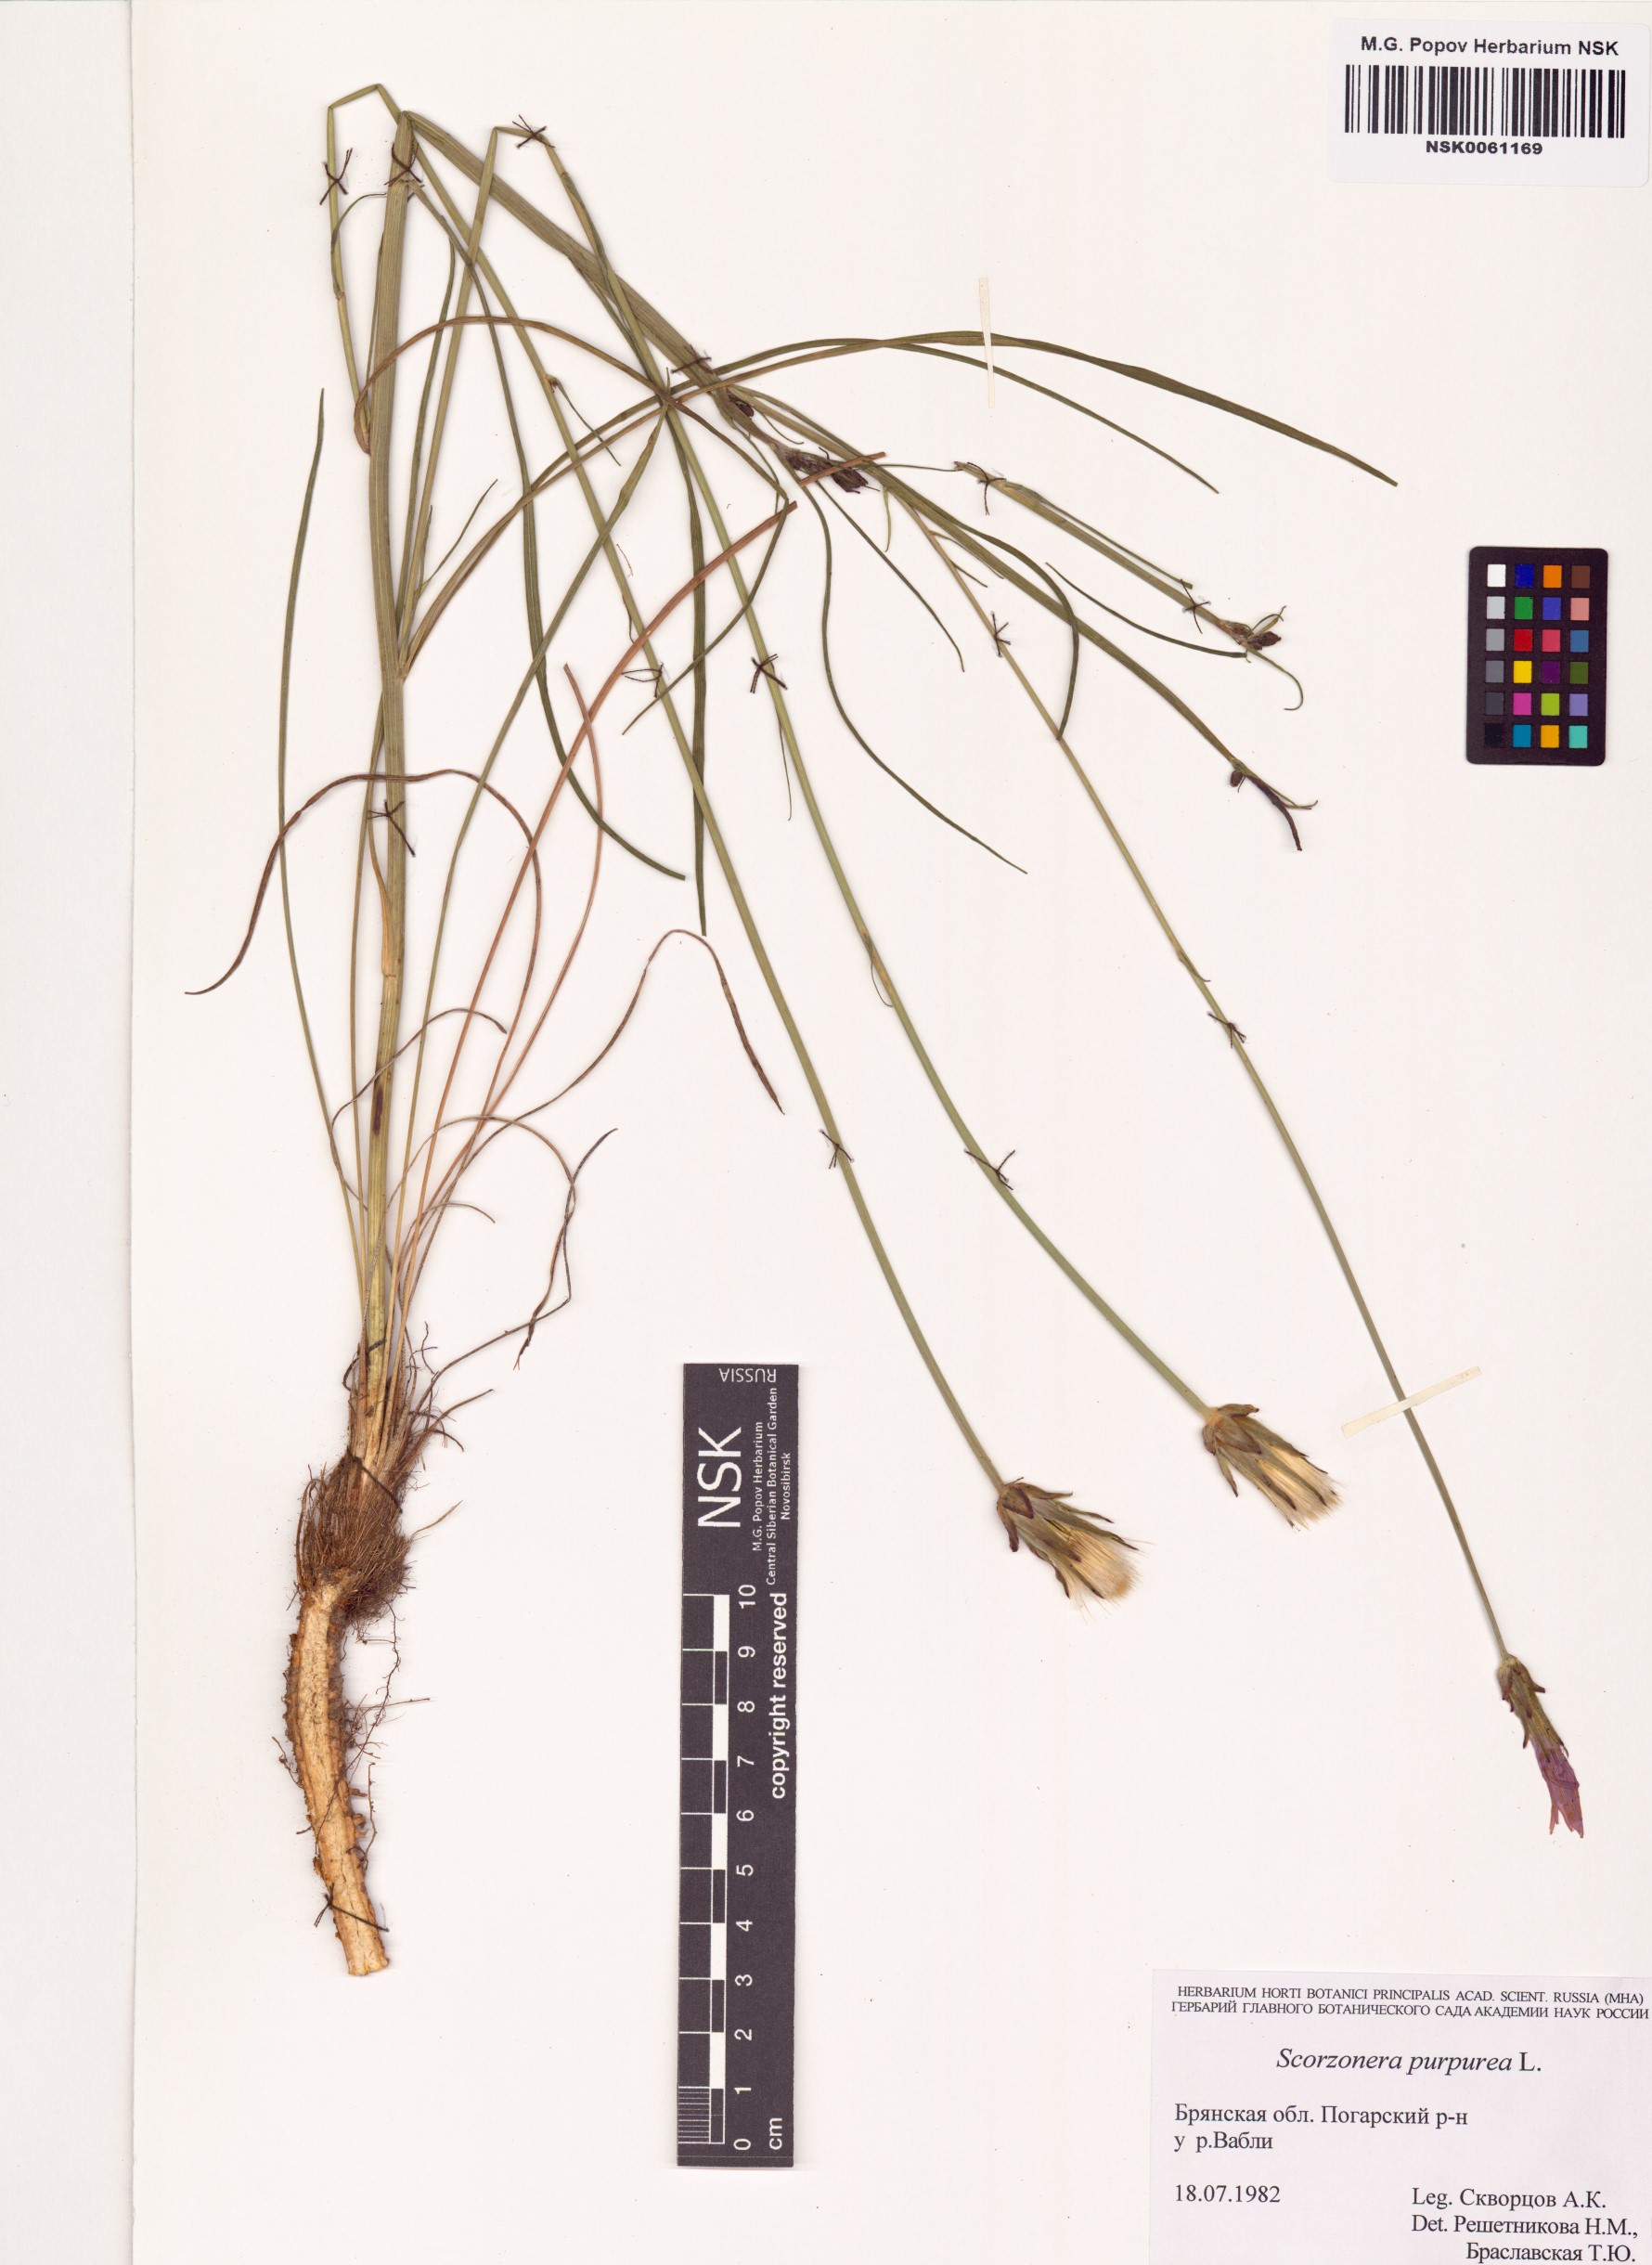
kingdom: Plantae
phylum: Tracheophyta
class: Magnoliopsida
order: Asterales
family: Asteraceae
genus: Scorzonera
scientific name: Scorzonera purpurea
